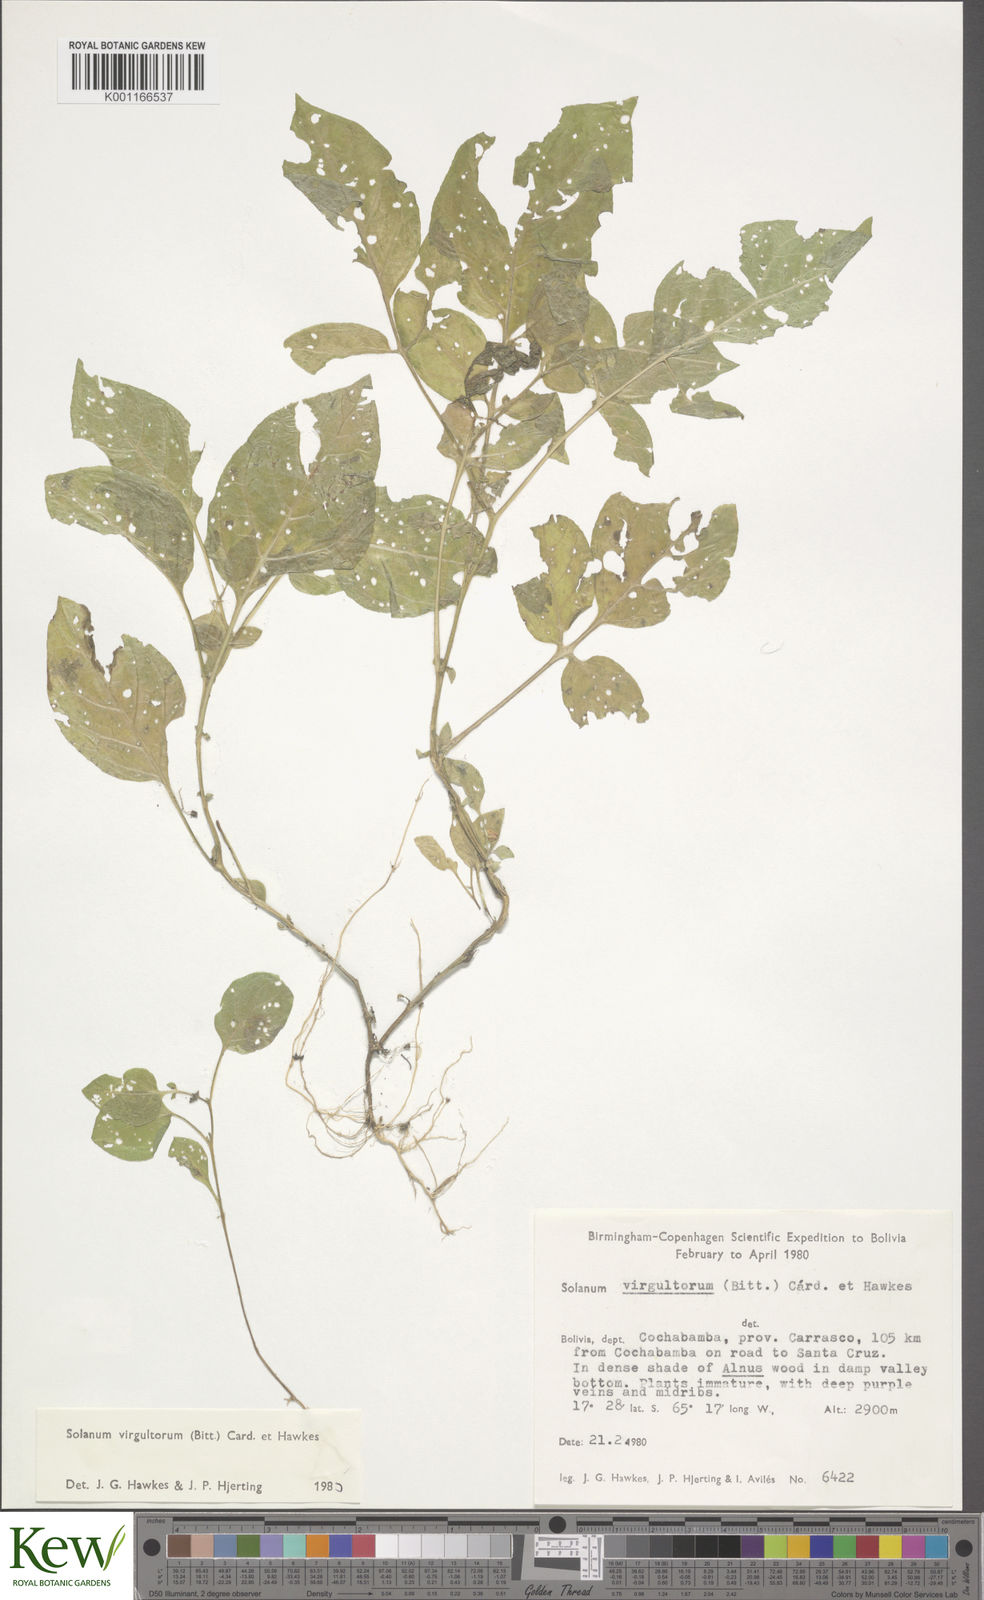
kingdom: Plantae
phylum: Tracheophyta
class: Magnoliopsida
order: Solanales
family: Solanaceae
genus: Solanum
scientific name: Solanum
